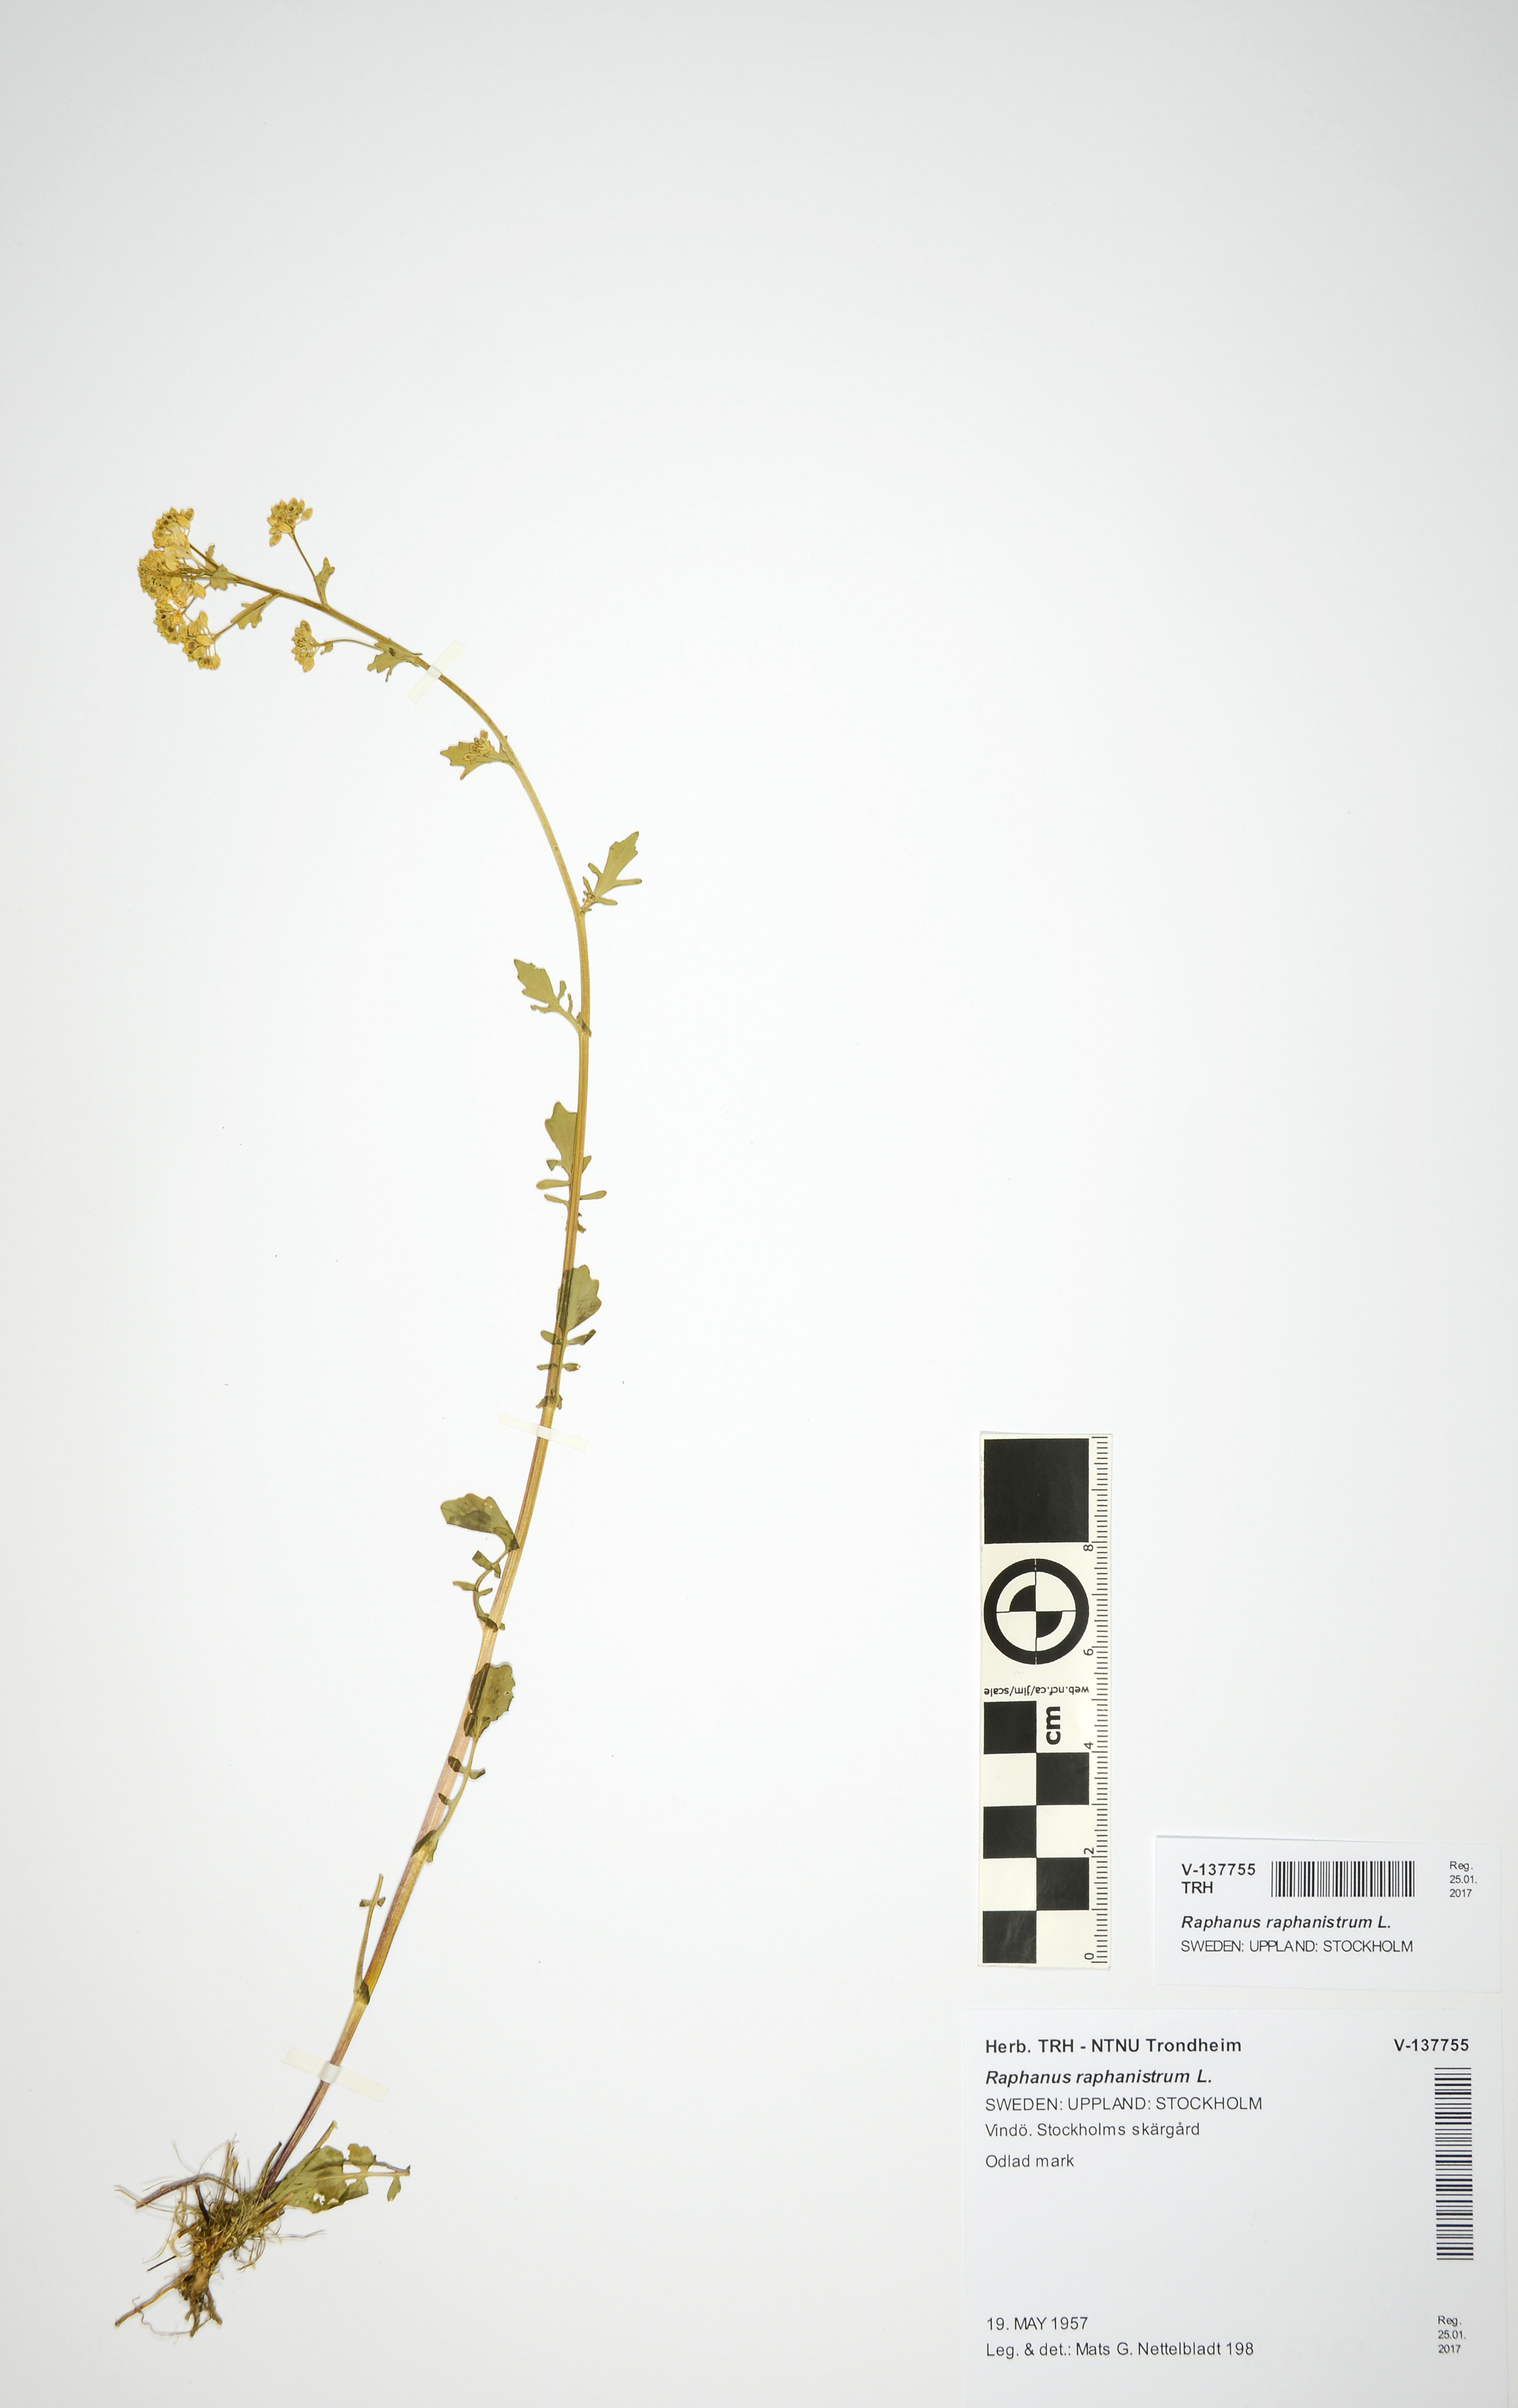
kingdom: Plantae
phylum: Tracheophyta
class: Magnoliopsida
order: Brassicales
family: Brassicaceae
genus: Raphanus
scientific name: Raphanus raphanistrum
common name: Wild radish
